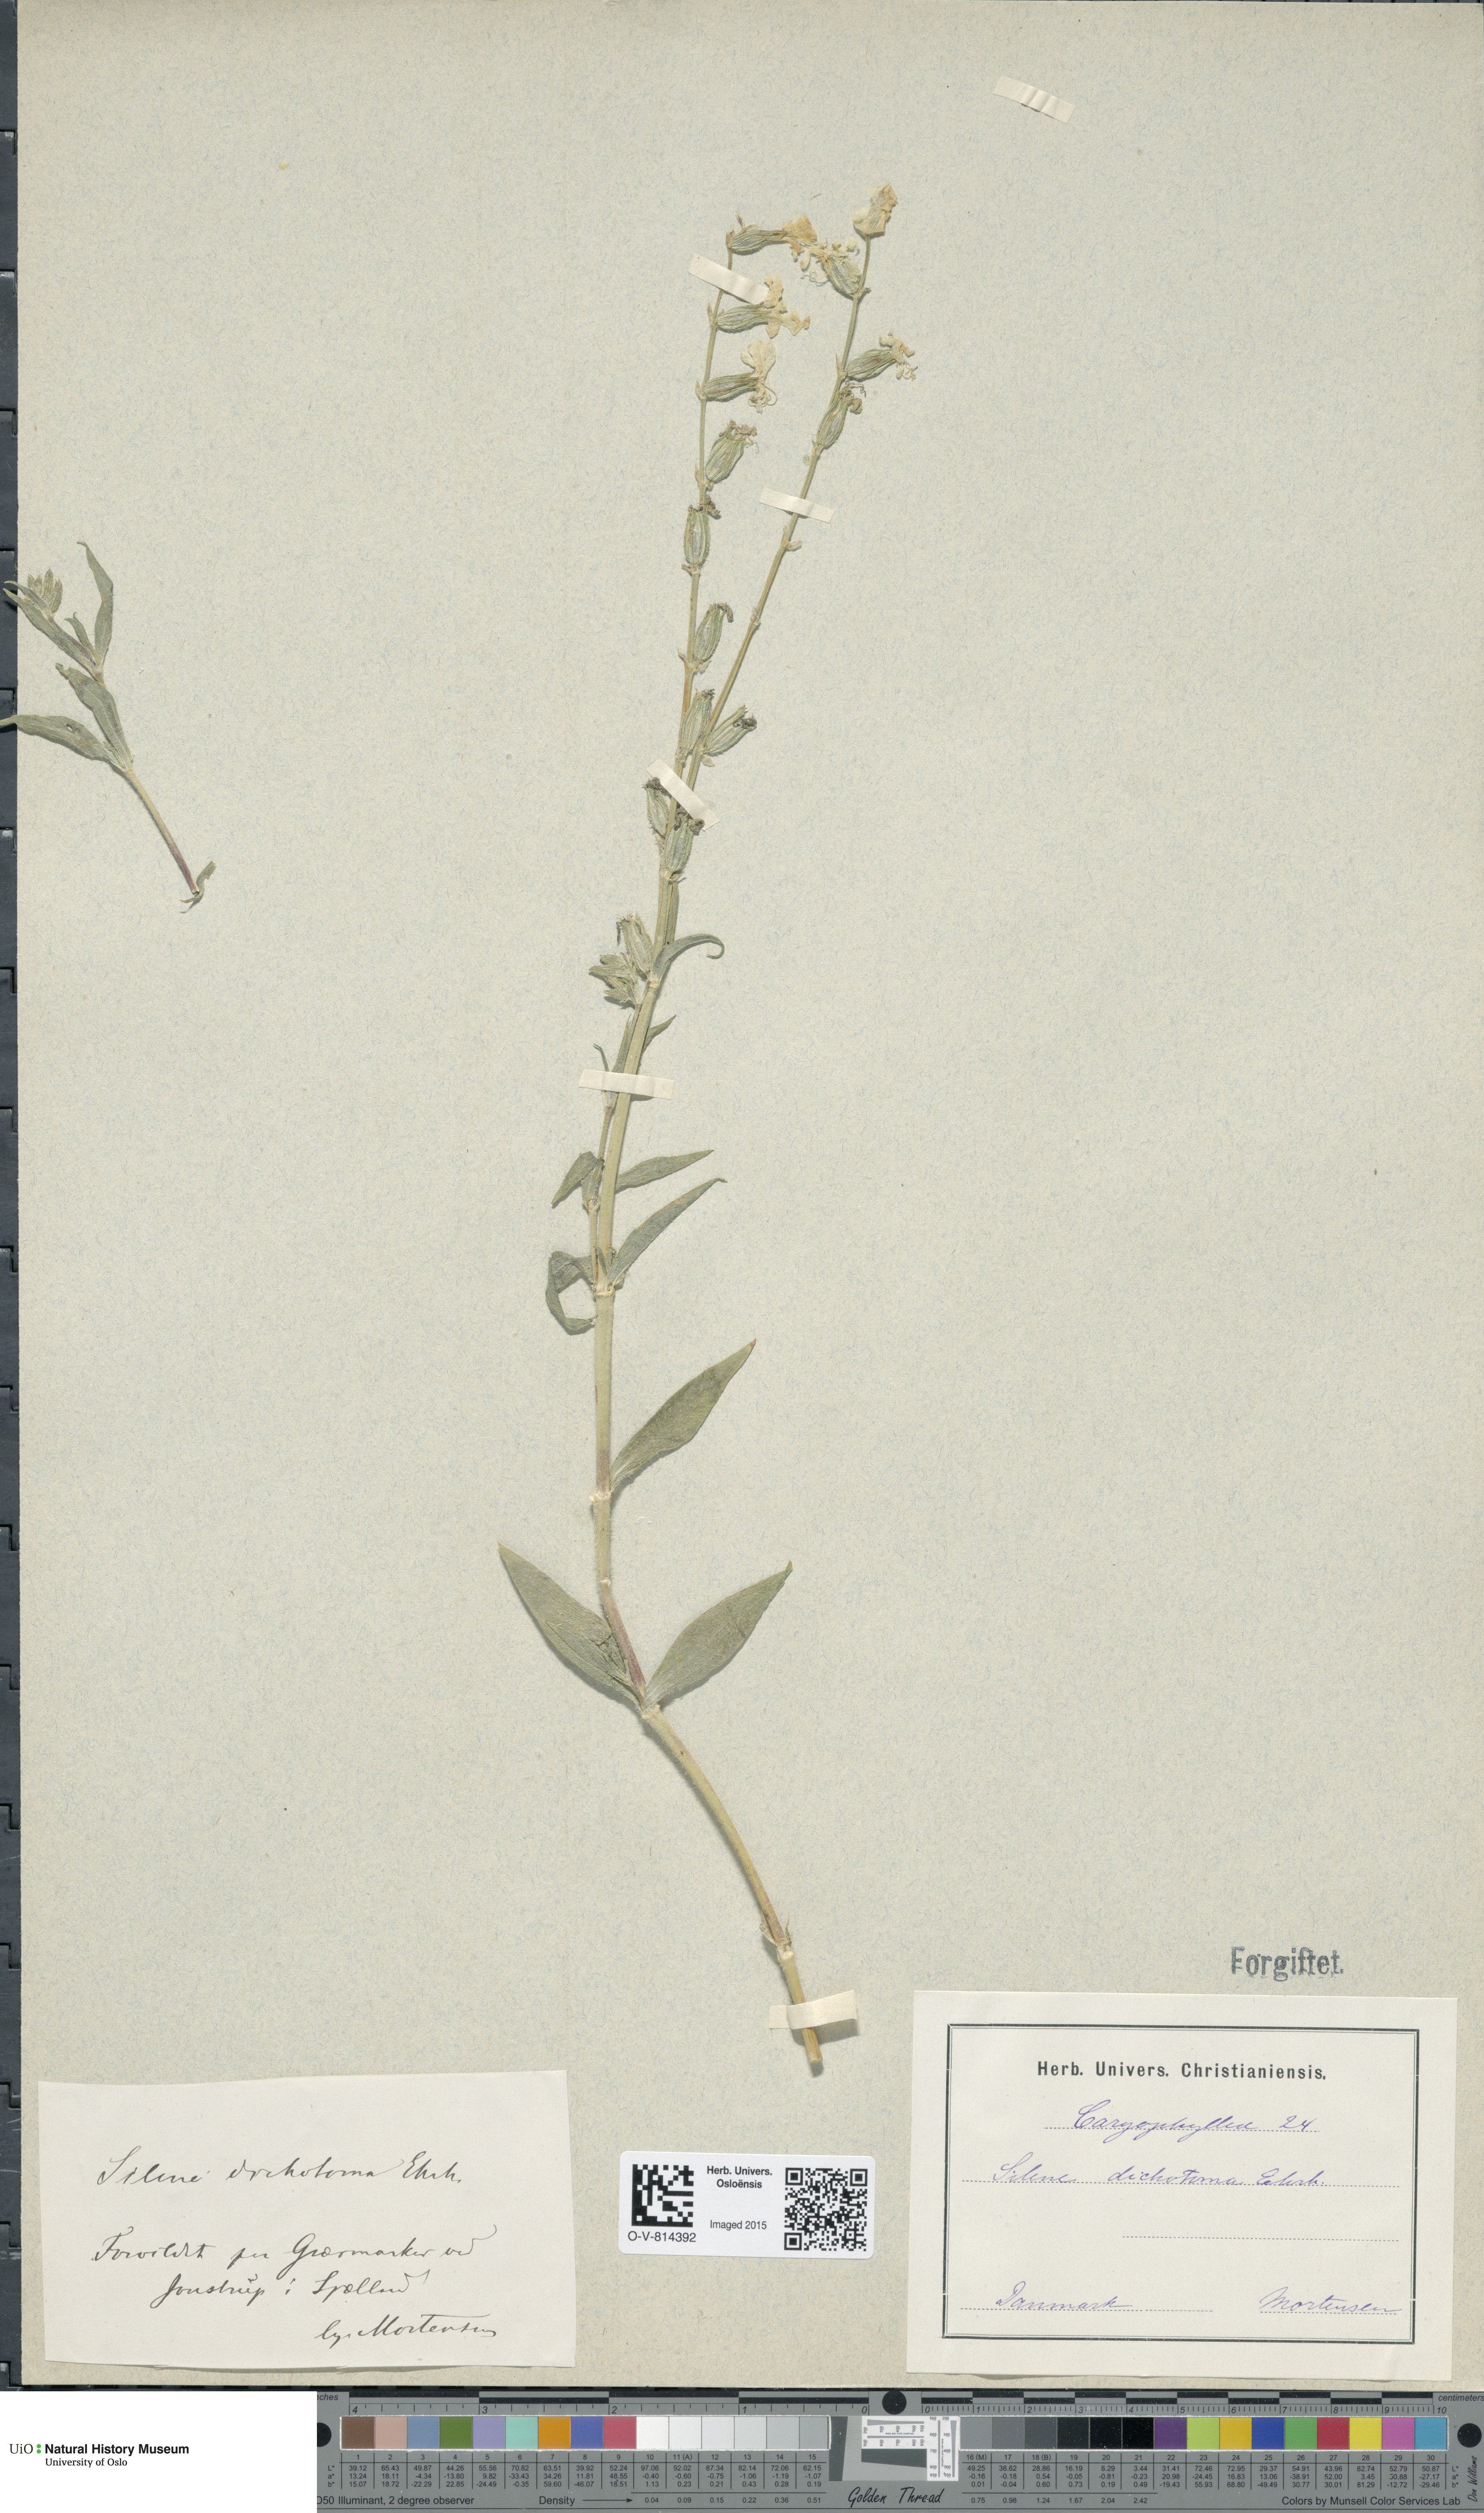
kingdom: Plantae
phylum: Tracheophyta
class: Magnoliopsida
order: Caryophyllales
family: Caryophyllaceae
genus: Silene
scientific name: Silene dichotoma
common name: Forked catchfly
